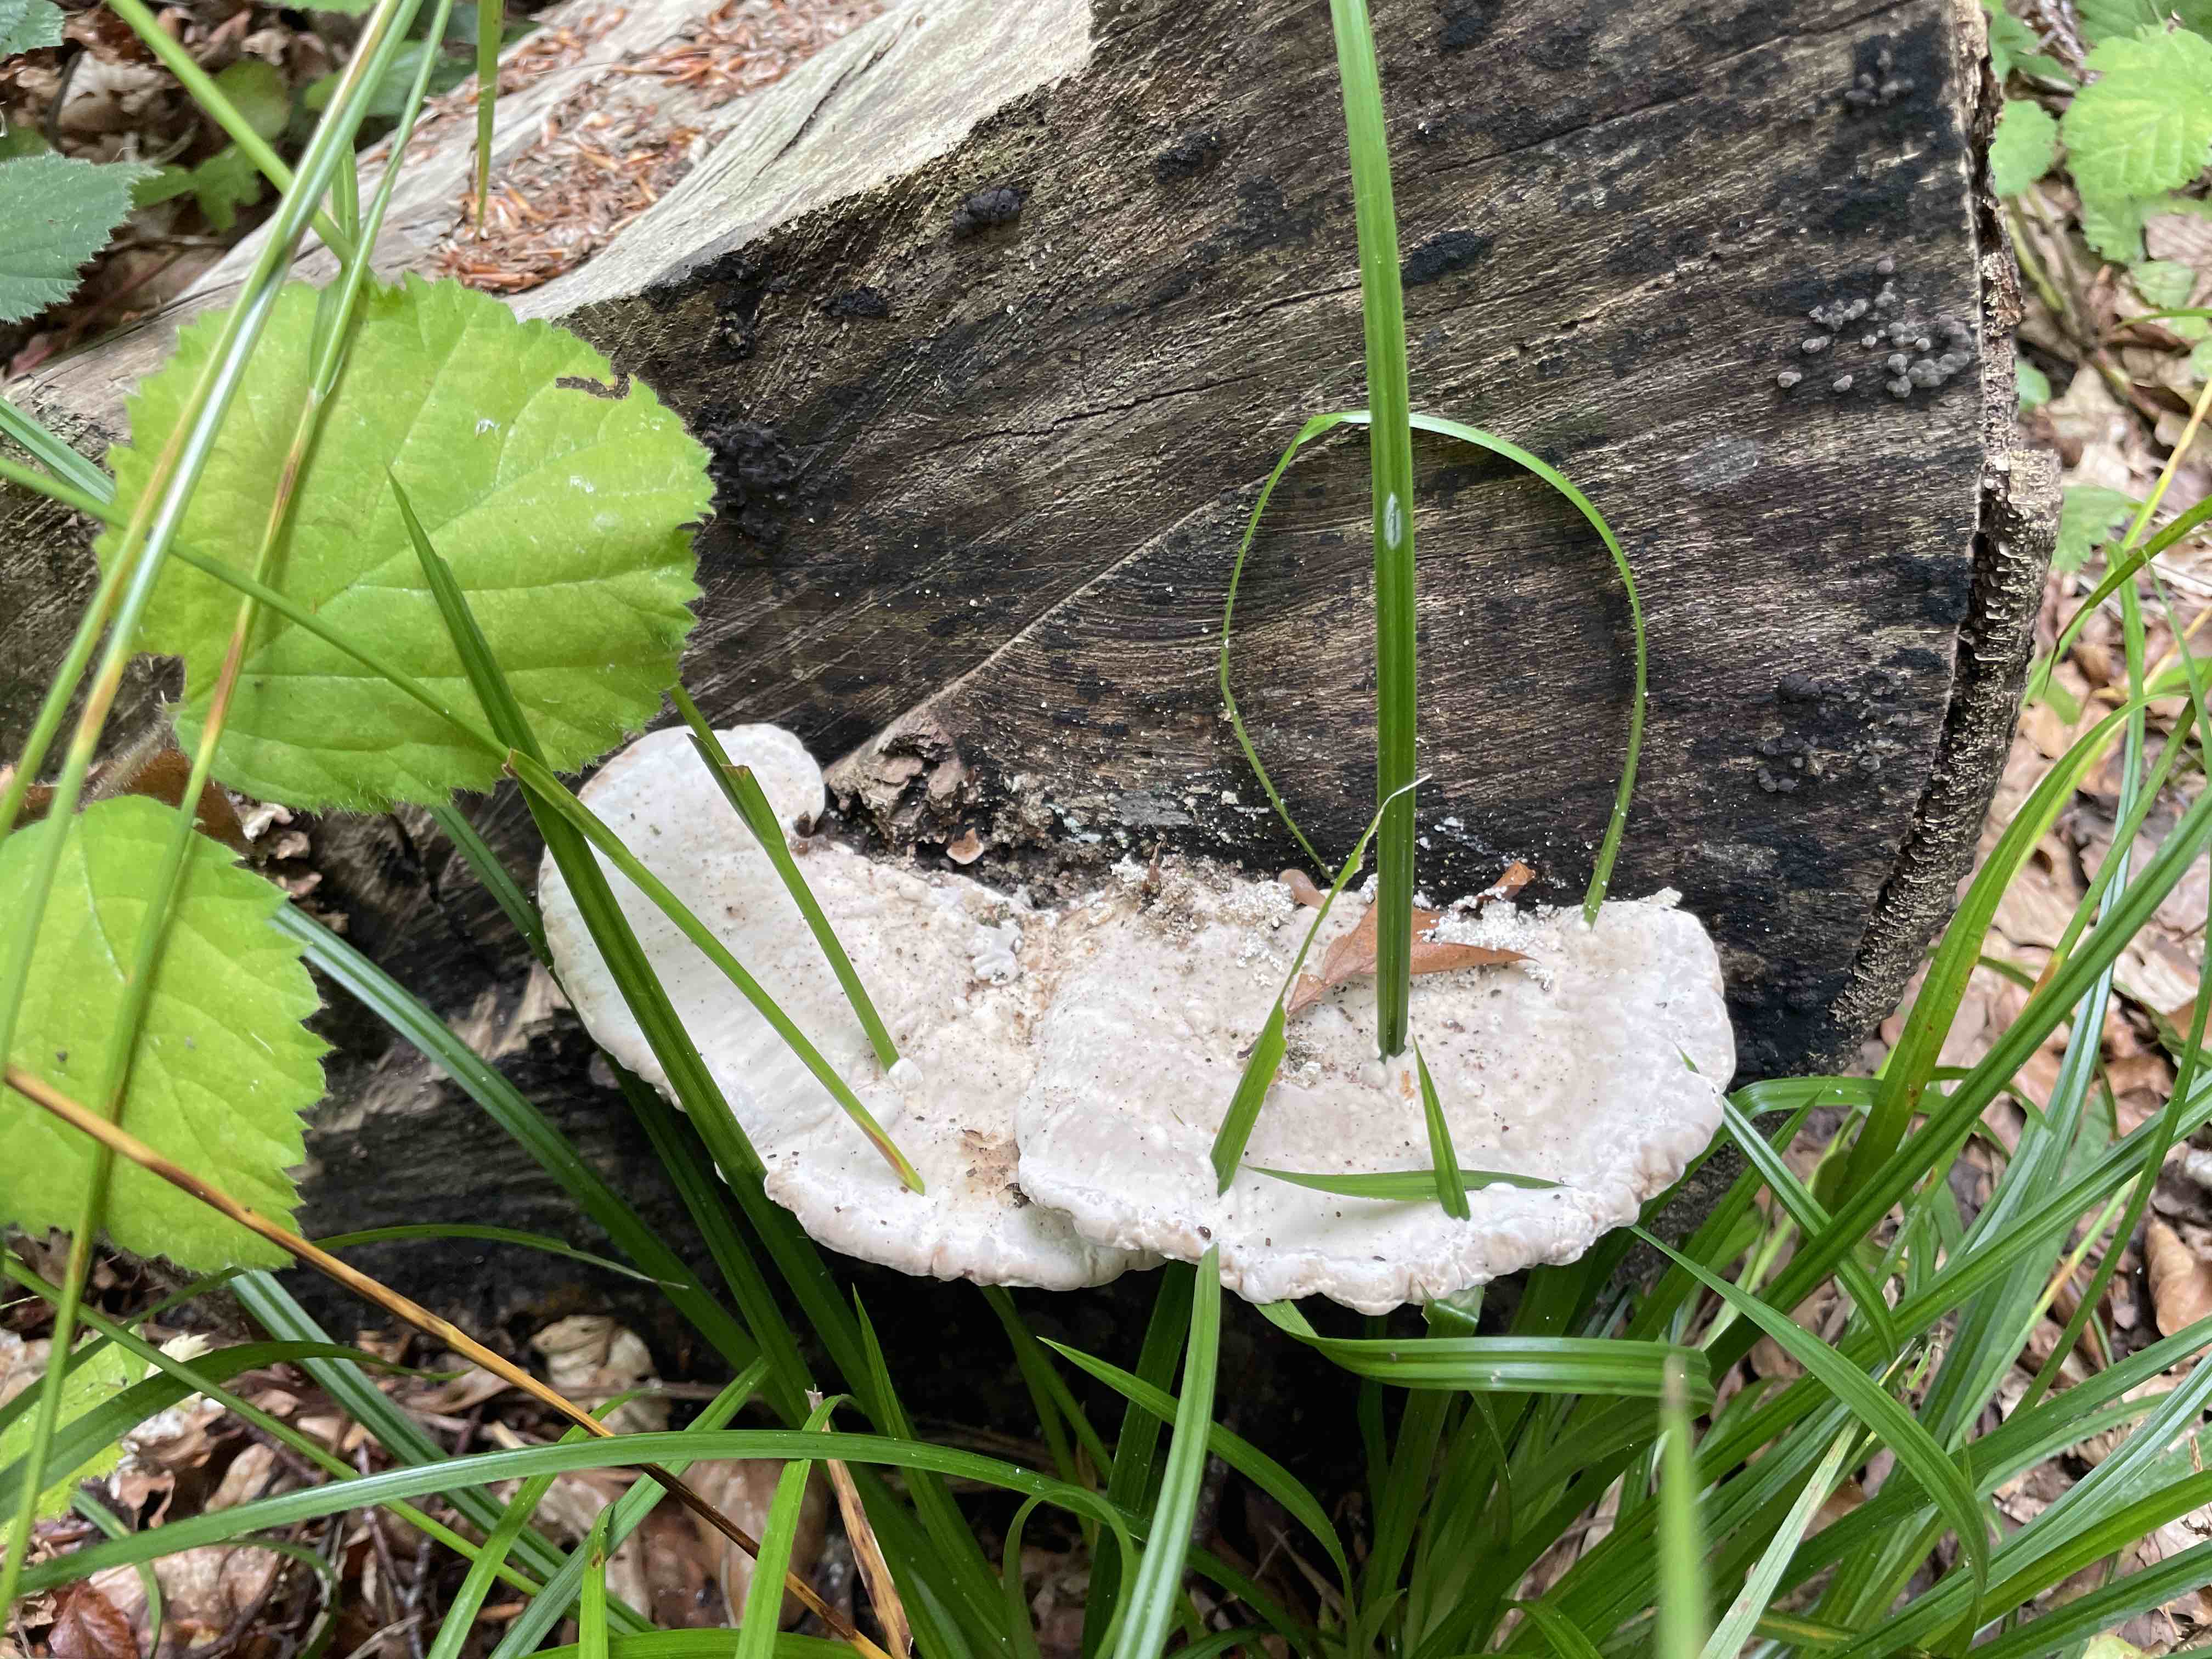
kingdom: Fungi
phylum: Basidiomycota
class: Agaricomycetes
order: Polyporales
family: Polyporaceae
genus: Trametes
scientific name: Trametes gibbosa
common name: puklet læderporesvamp
